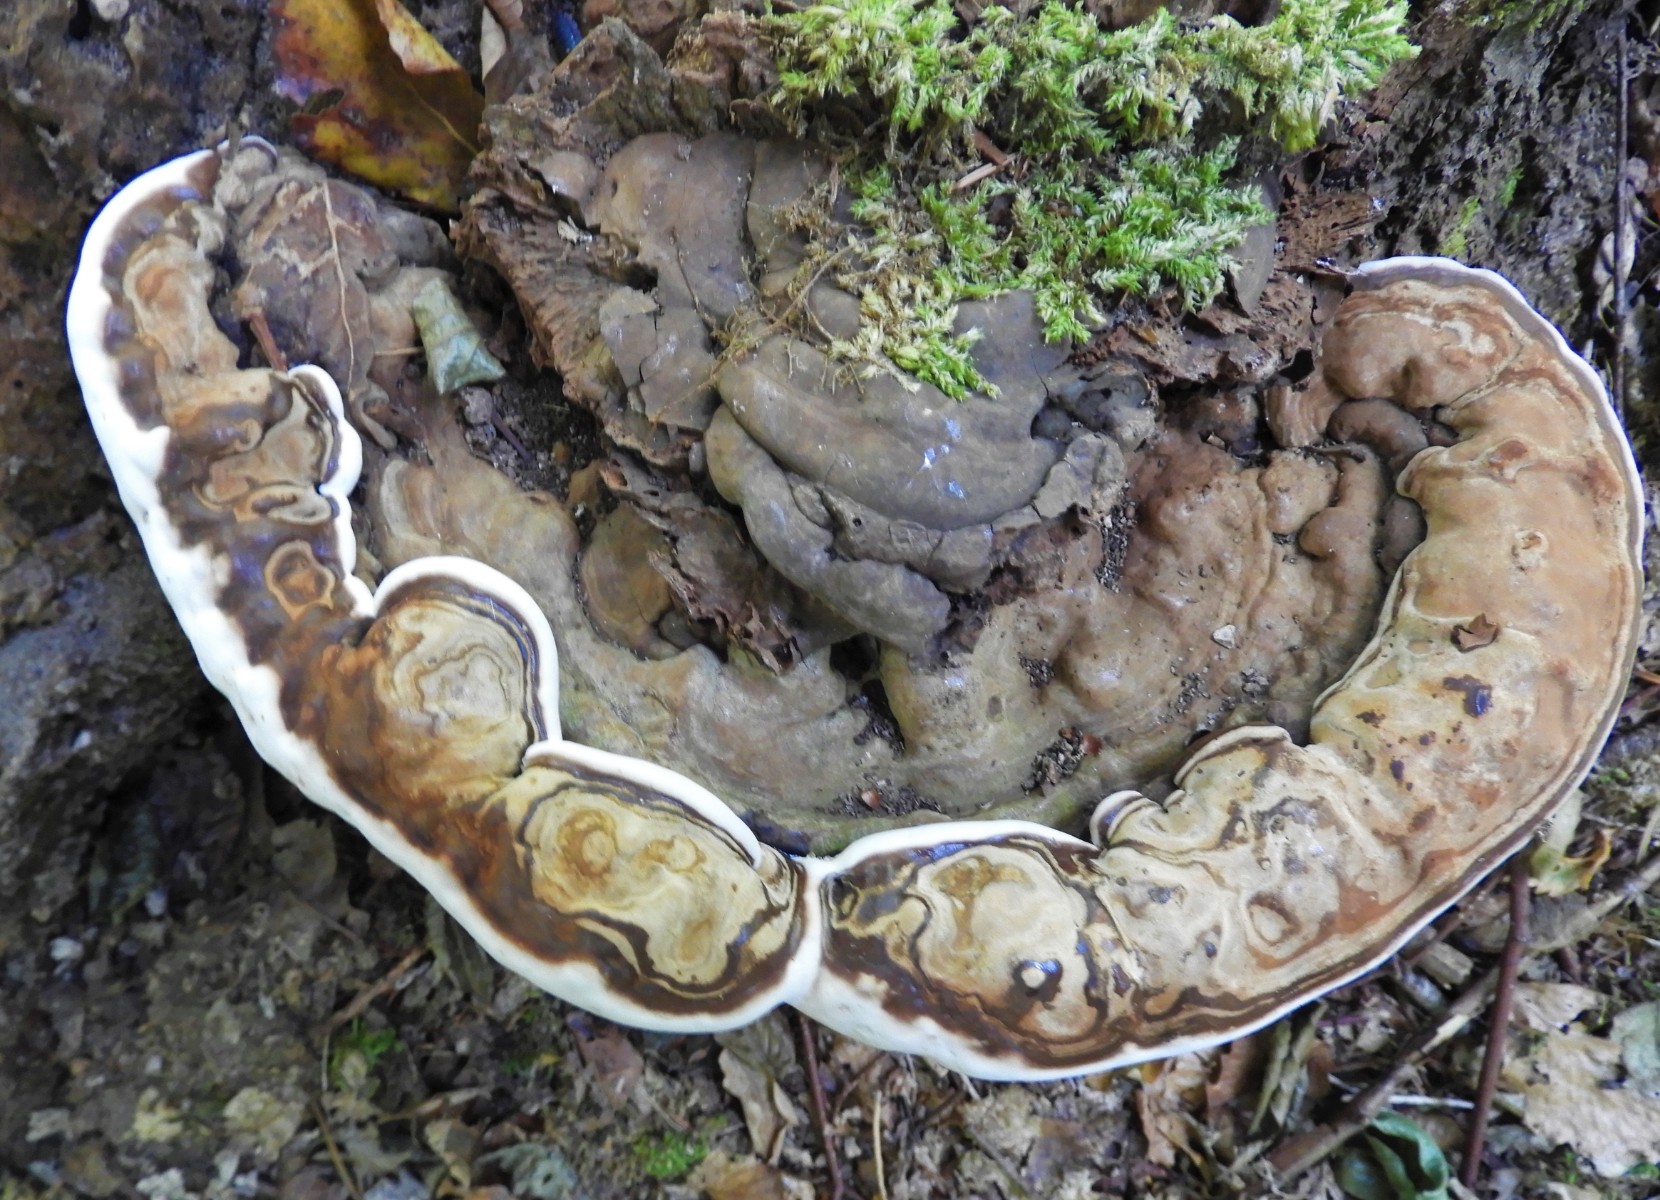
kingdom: Fungi
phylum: Basidiomycota
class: Agaricomycetes
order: Polyporales
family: Polyporaceae
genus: Ganoderma
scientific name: Ganoderma applanatum
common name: flad lakporesvamp
